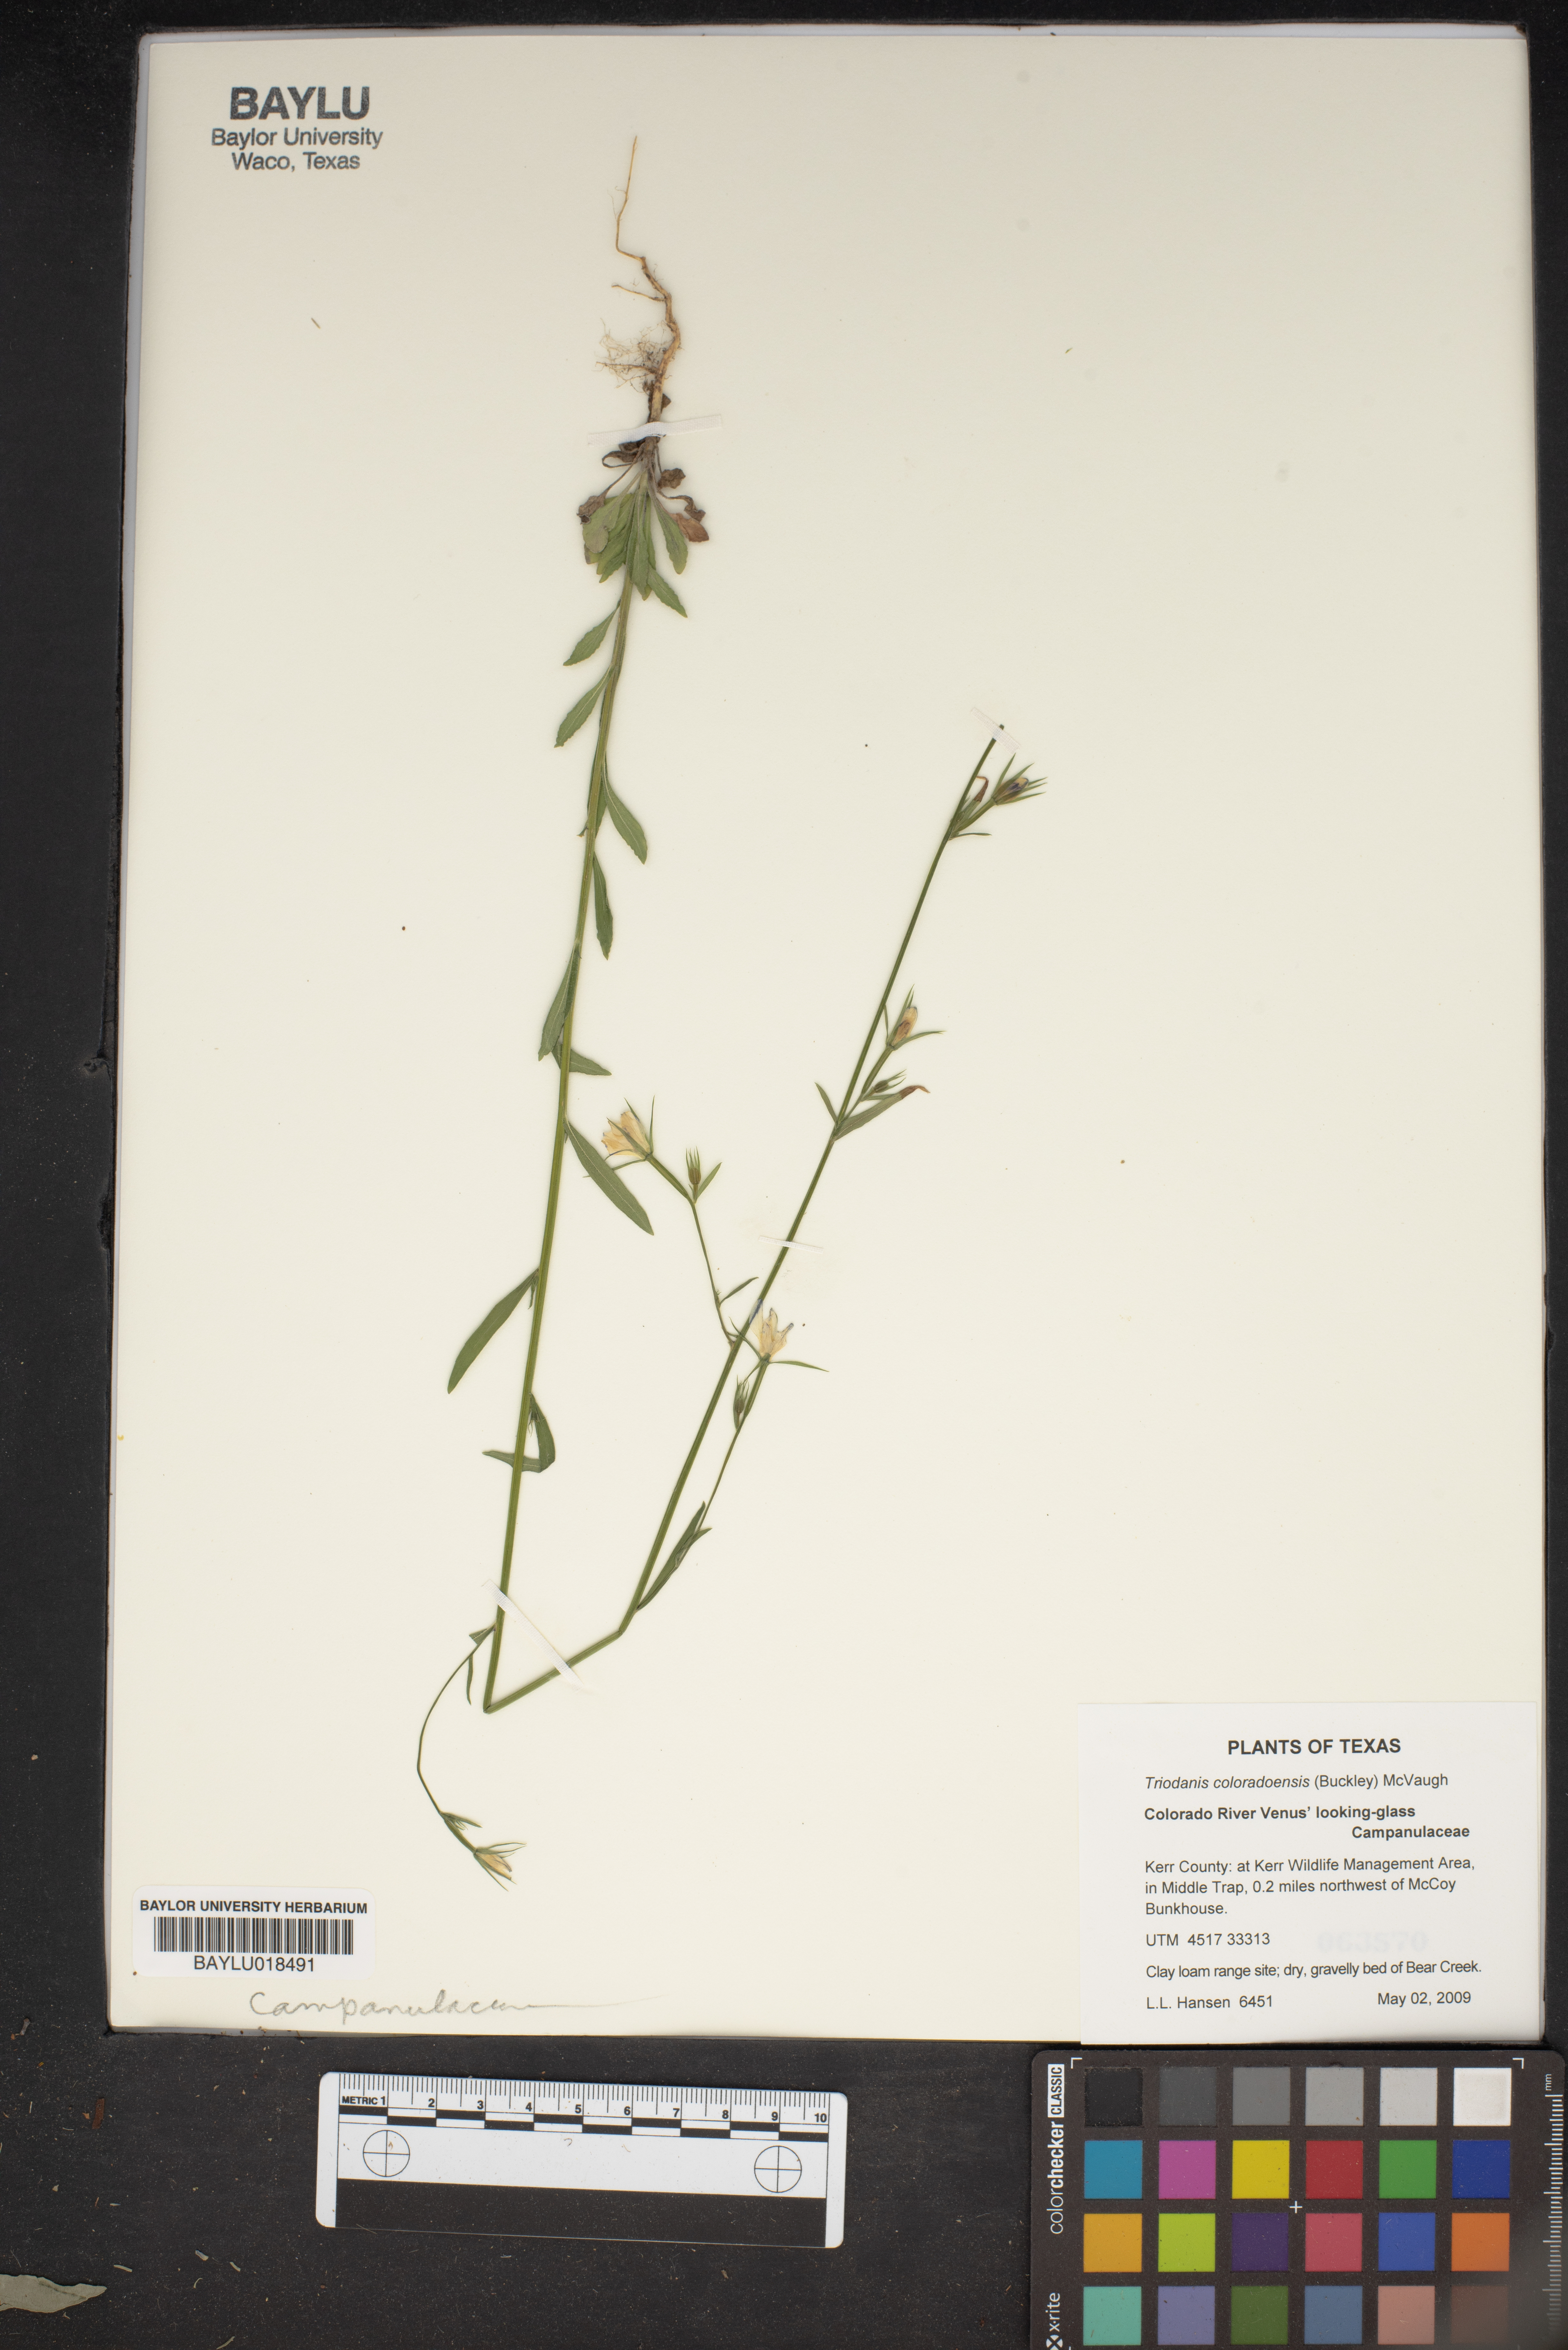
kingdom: Plantae
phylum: Tracheophyta
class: Magnoliopsida
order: Asterales
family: Campanulaceae
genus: Triodanis
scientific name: Triodanis coloradoensis
